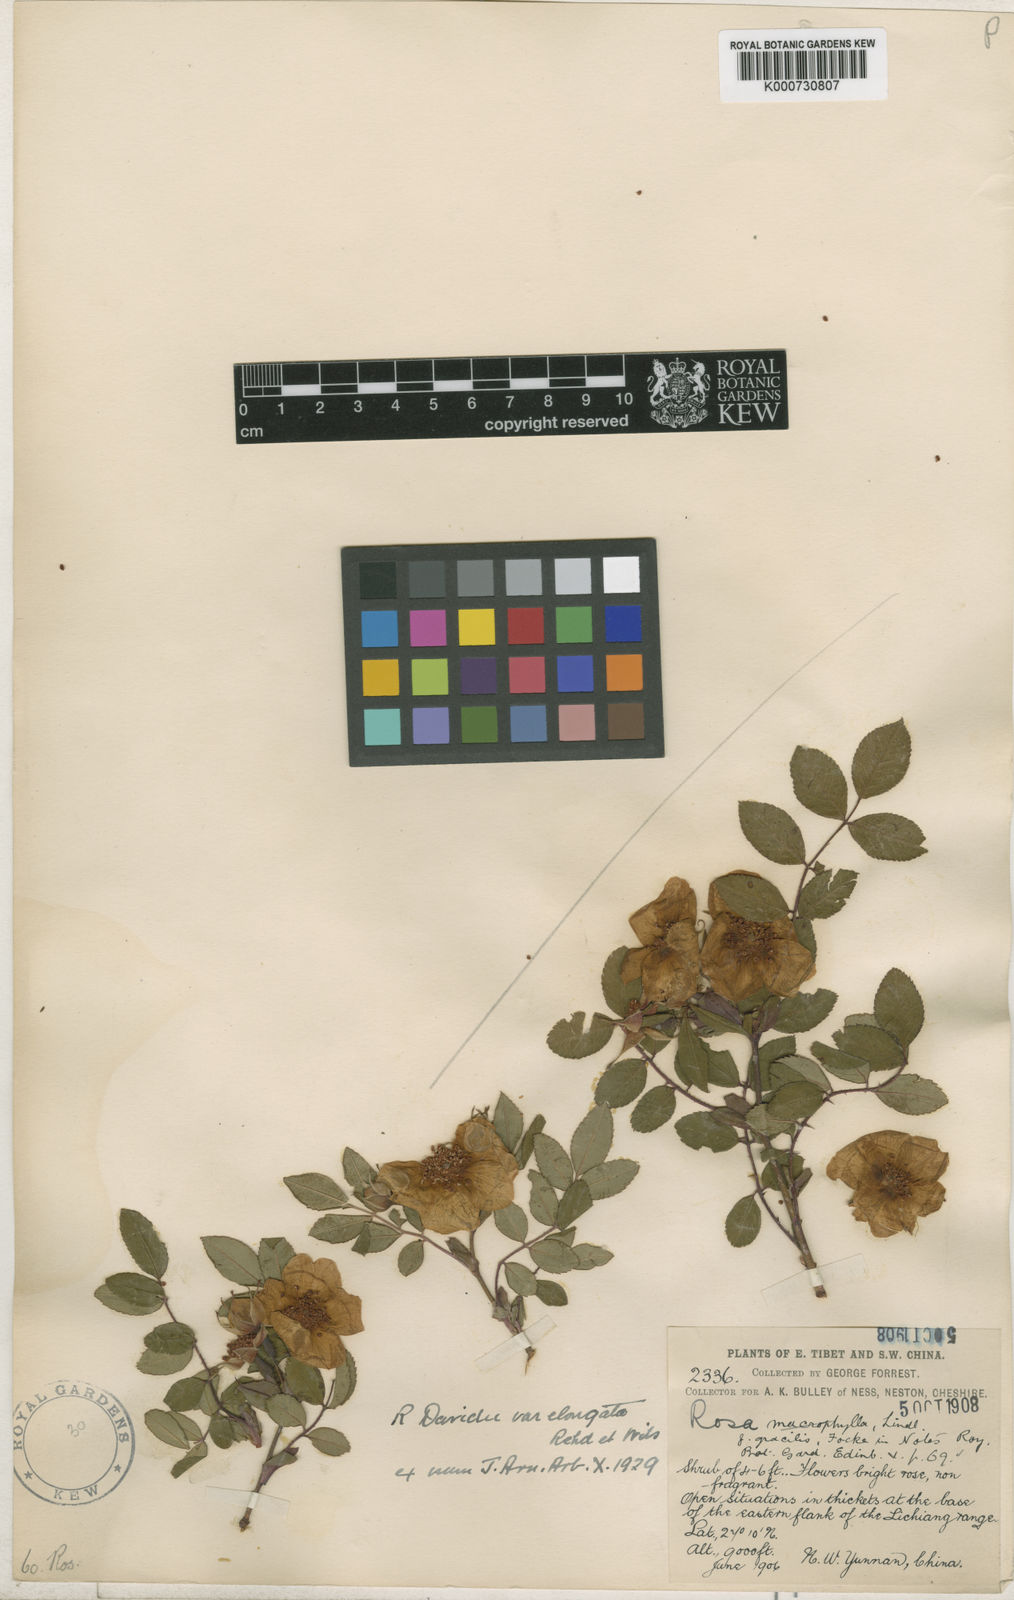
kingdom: Plantae
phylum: Tracheophyta
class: Magnoliopsida
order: Rosales
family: Rosaceae
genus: Rosa
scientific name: Rosa
